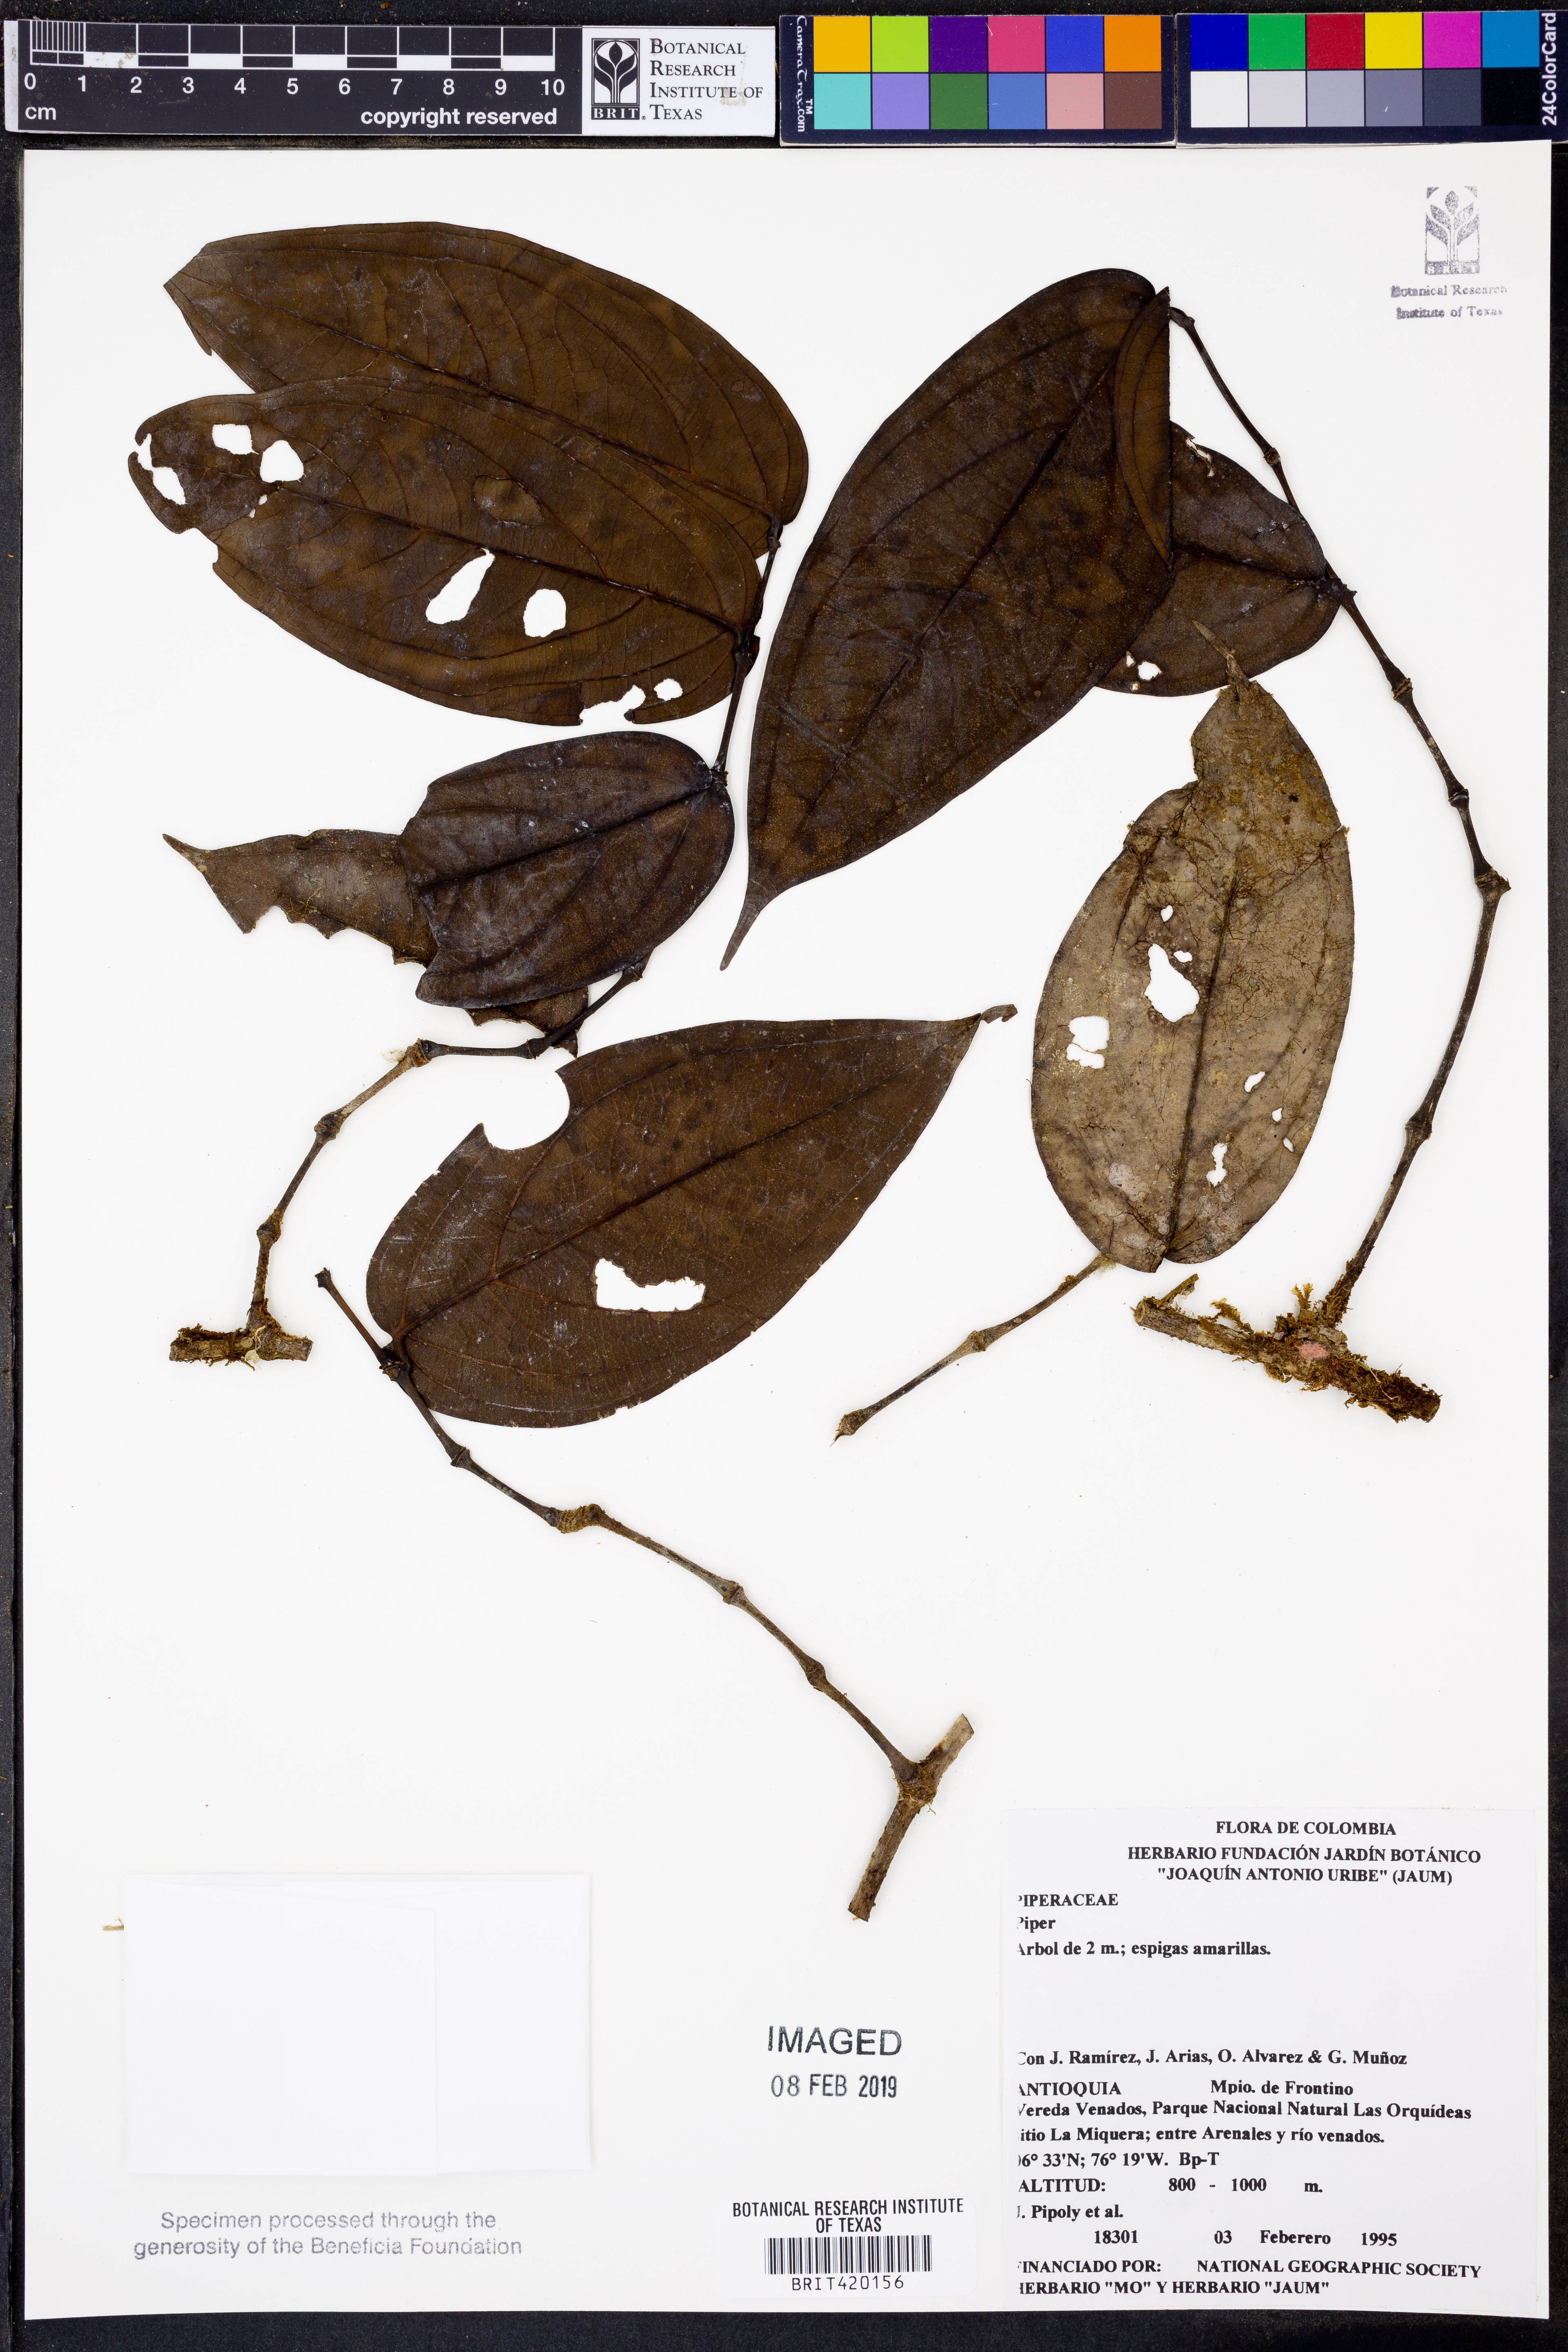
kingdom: Plantae
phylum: Tracheophyta
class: Magnoliopsida
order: Piperales
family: Piperaceae
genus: Piper
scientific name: Piper
